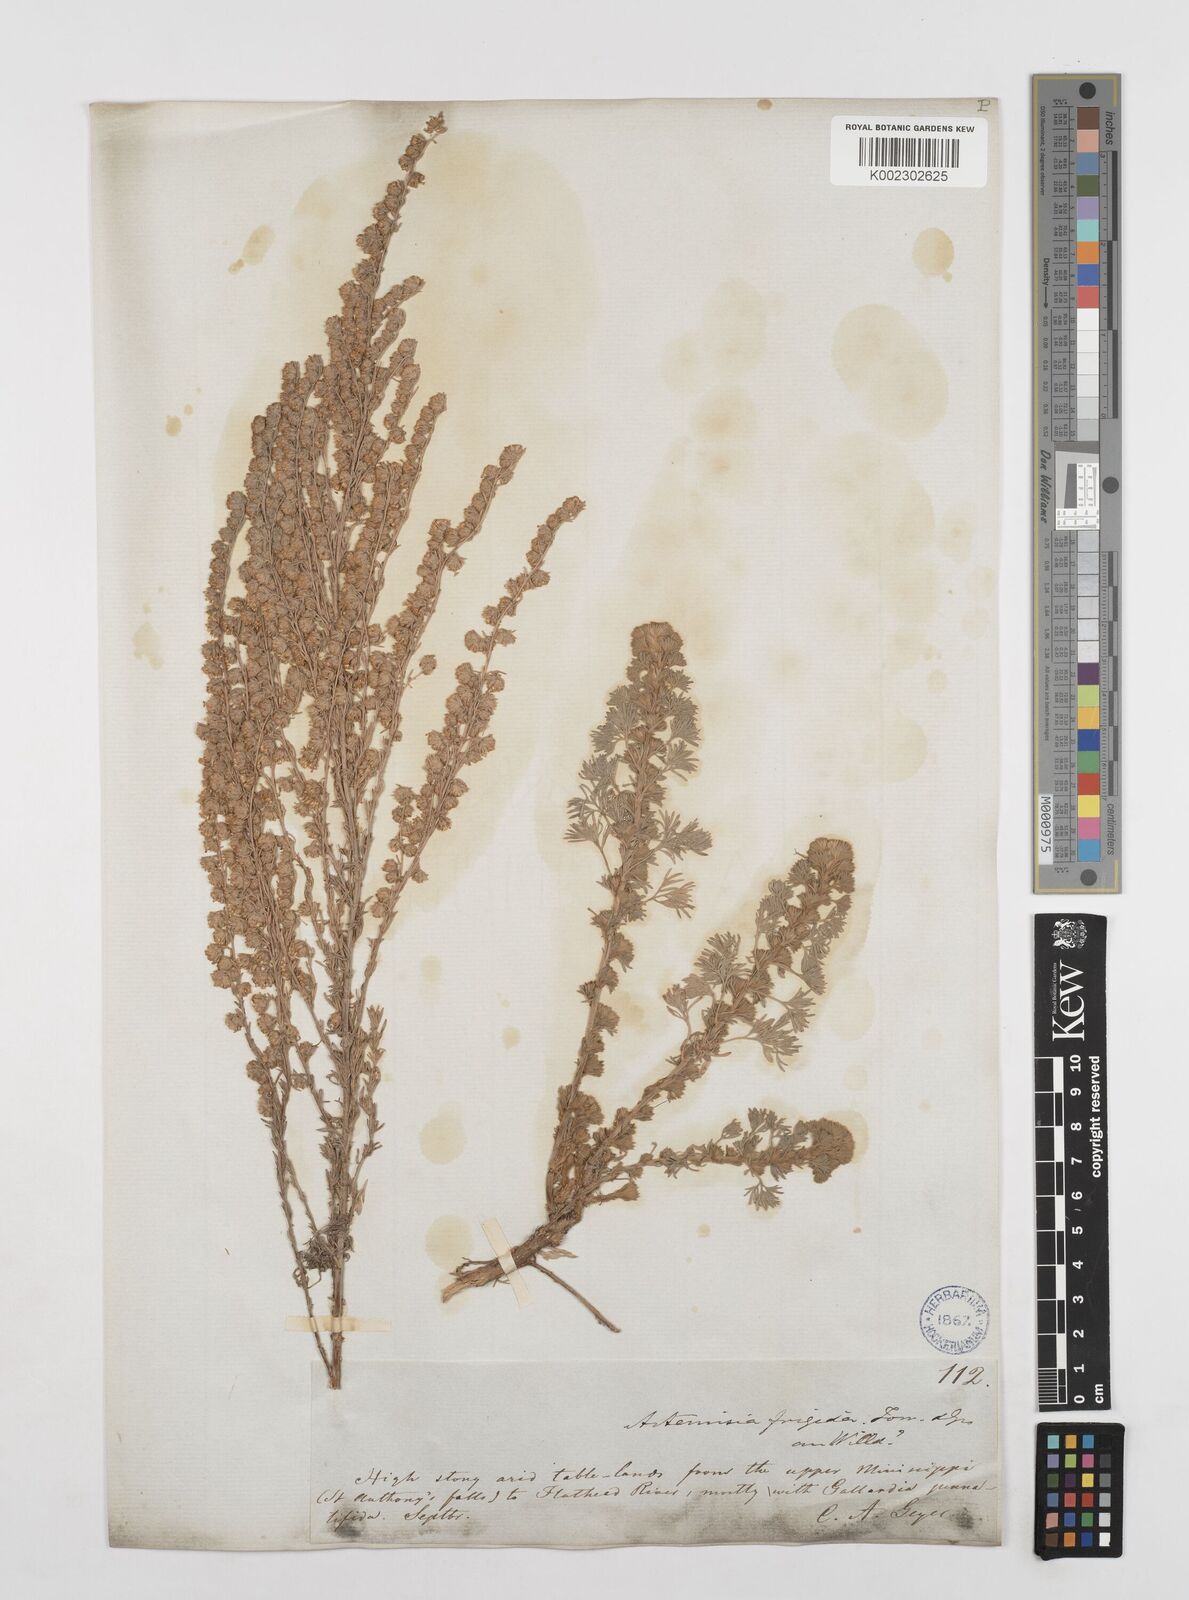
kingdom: Plantae
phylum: Tracheophyta
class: Magnoliopsida
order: Asterales
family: Asteraceae
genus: Artemisia
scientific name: Artemisia frigida
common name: Prairie sagewort
